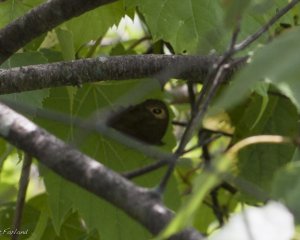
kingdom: Animalia
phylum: Arthropoda
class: Insecta
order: Lepidoptera
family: Nymphalidae
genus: Cercyonis
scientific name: Cercyonis pegala
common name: Common Wood-Nymph
